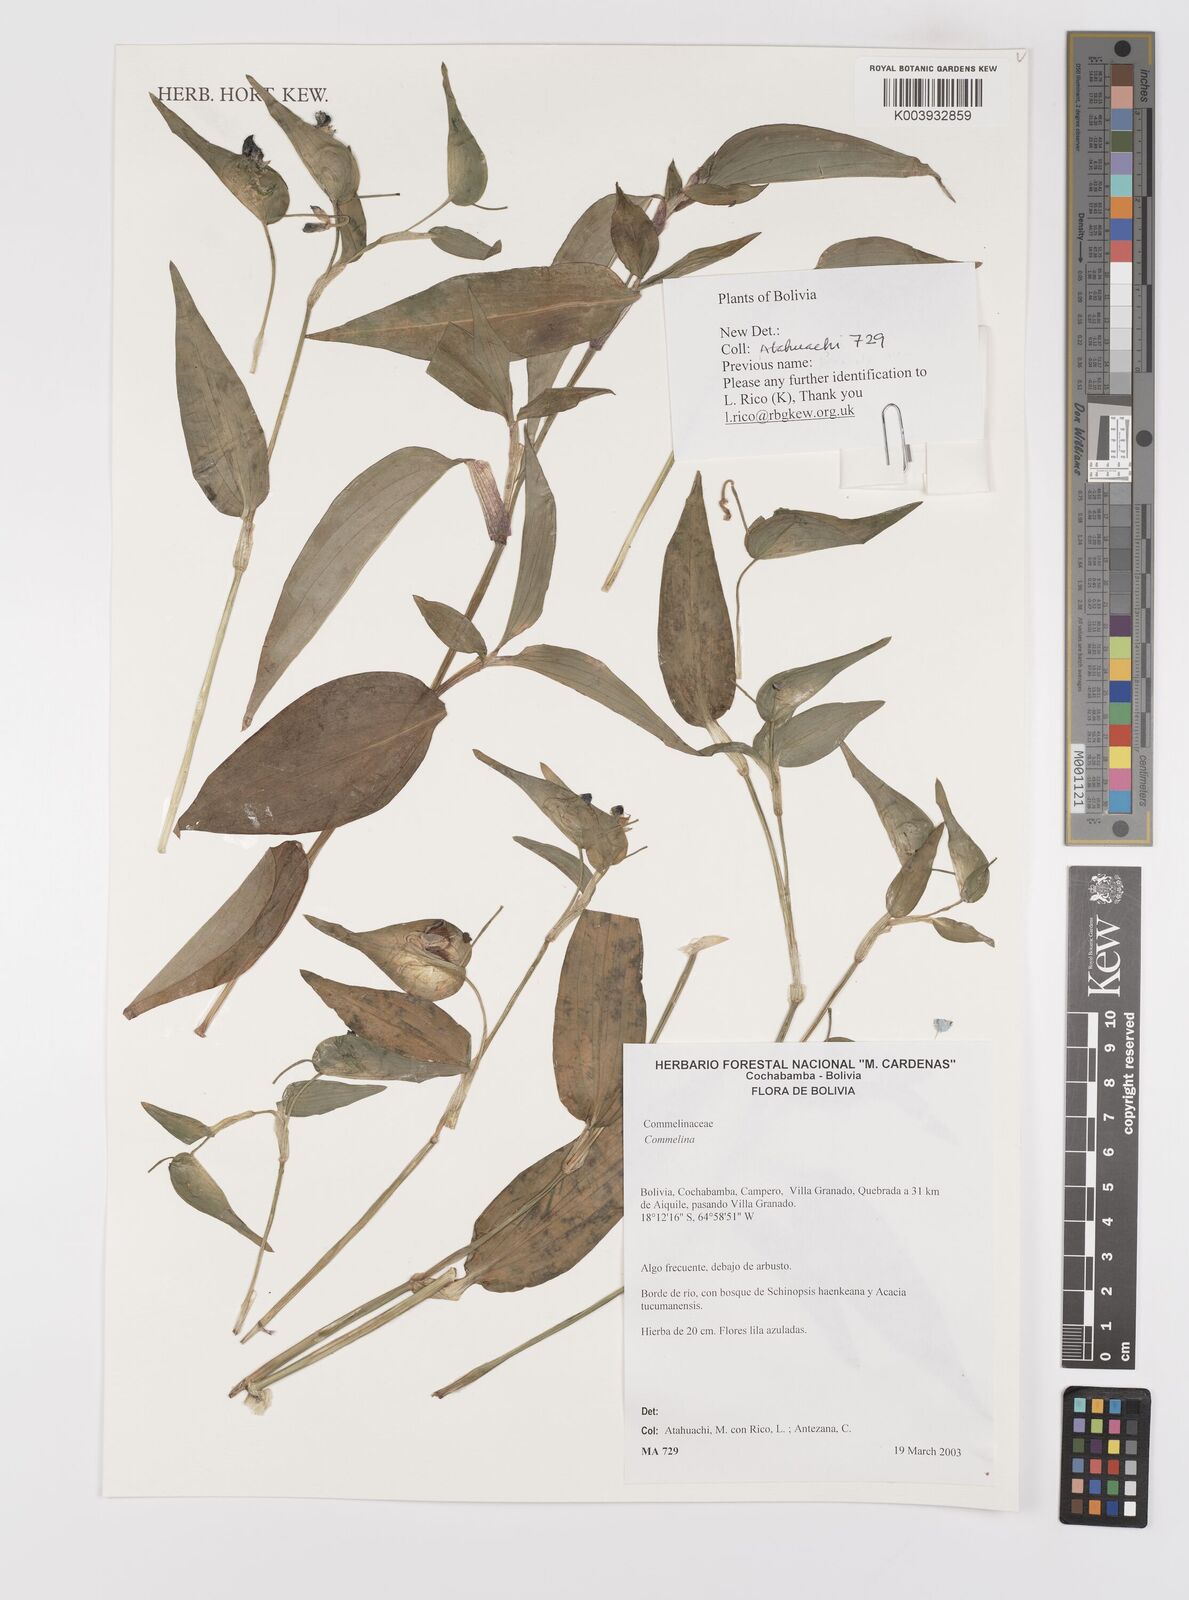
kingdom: Plantae
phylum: Tracheophyta
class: Liliopsida
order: Commelinales
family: Commelinaceae
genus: Commelina
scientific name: Commelina
